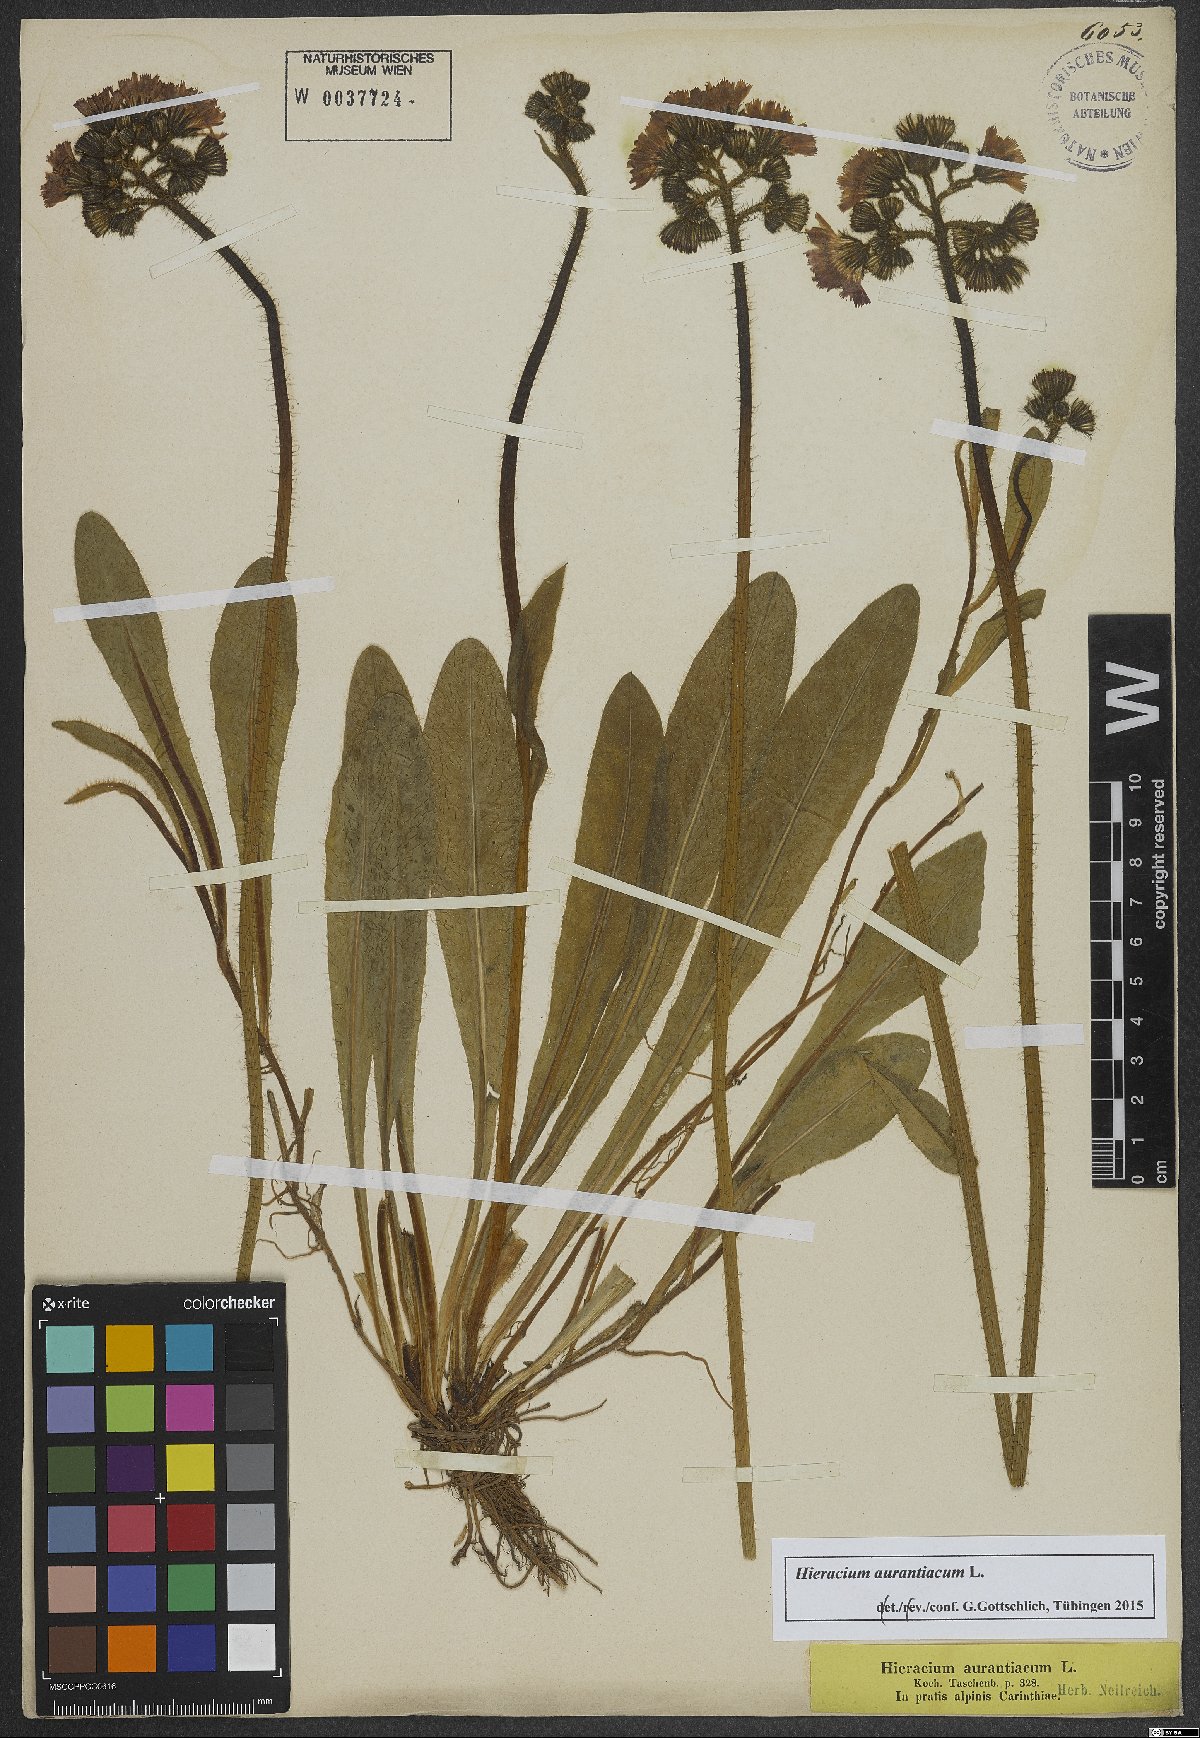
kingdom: Plantae
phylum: Tracheophyta
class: Magnoliopsida
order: Asterales
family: Asteraceae
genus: Pilosella
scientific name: Pilosella aurantiaca
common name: Fox-and-cubs
